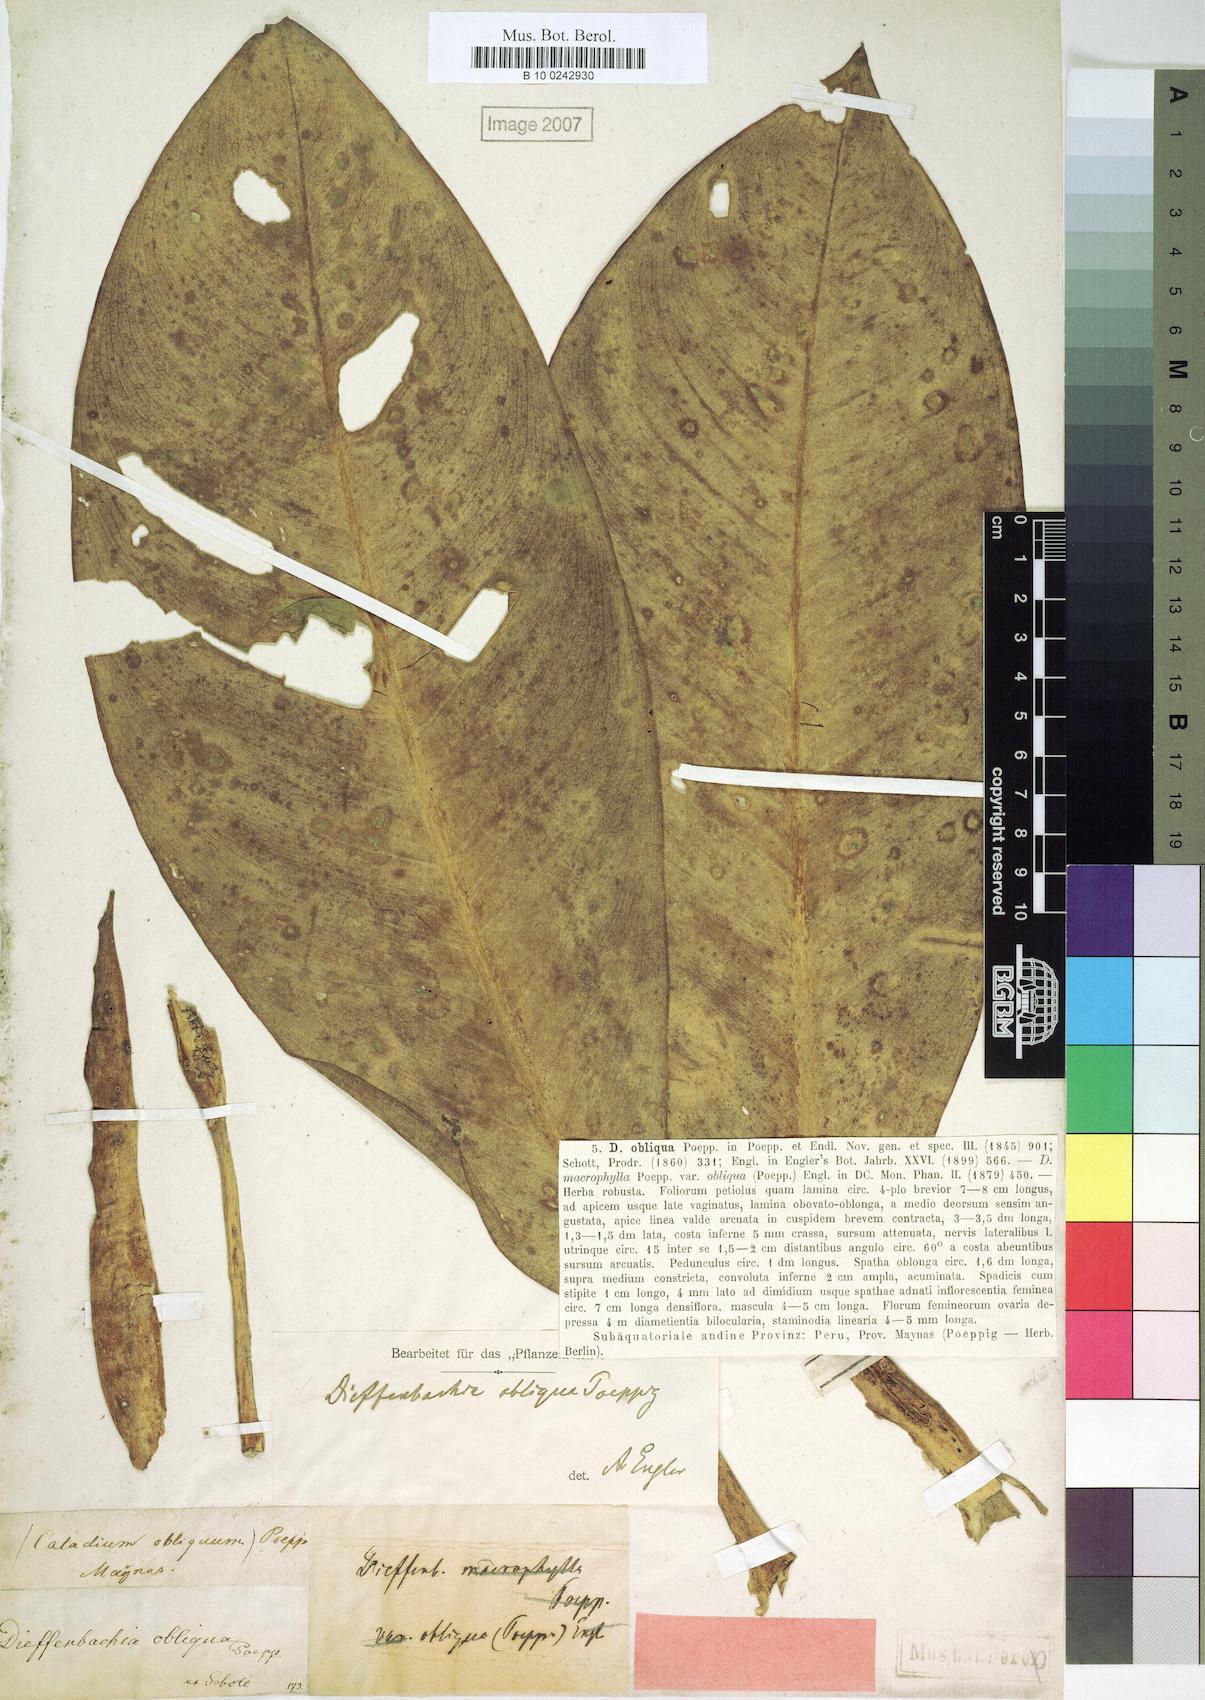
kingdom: Plantae
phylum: Tracheophyta
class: Liliopsida
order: Alismatales
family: Araceae
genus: Dieffenbachia
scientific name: Dieffenbachia obliqua
